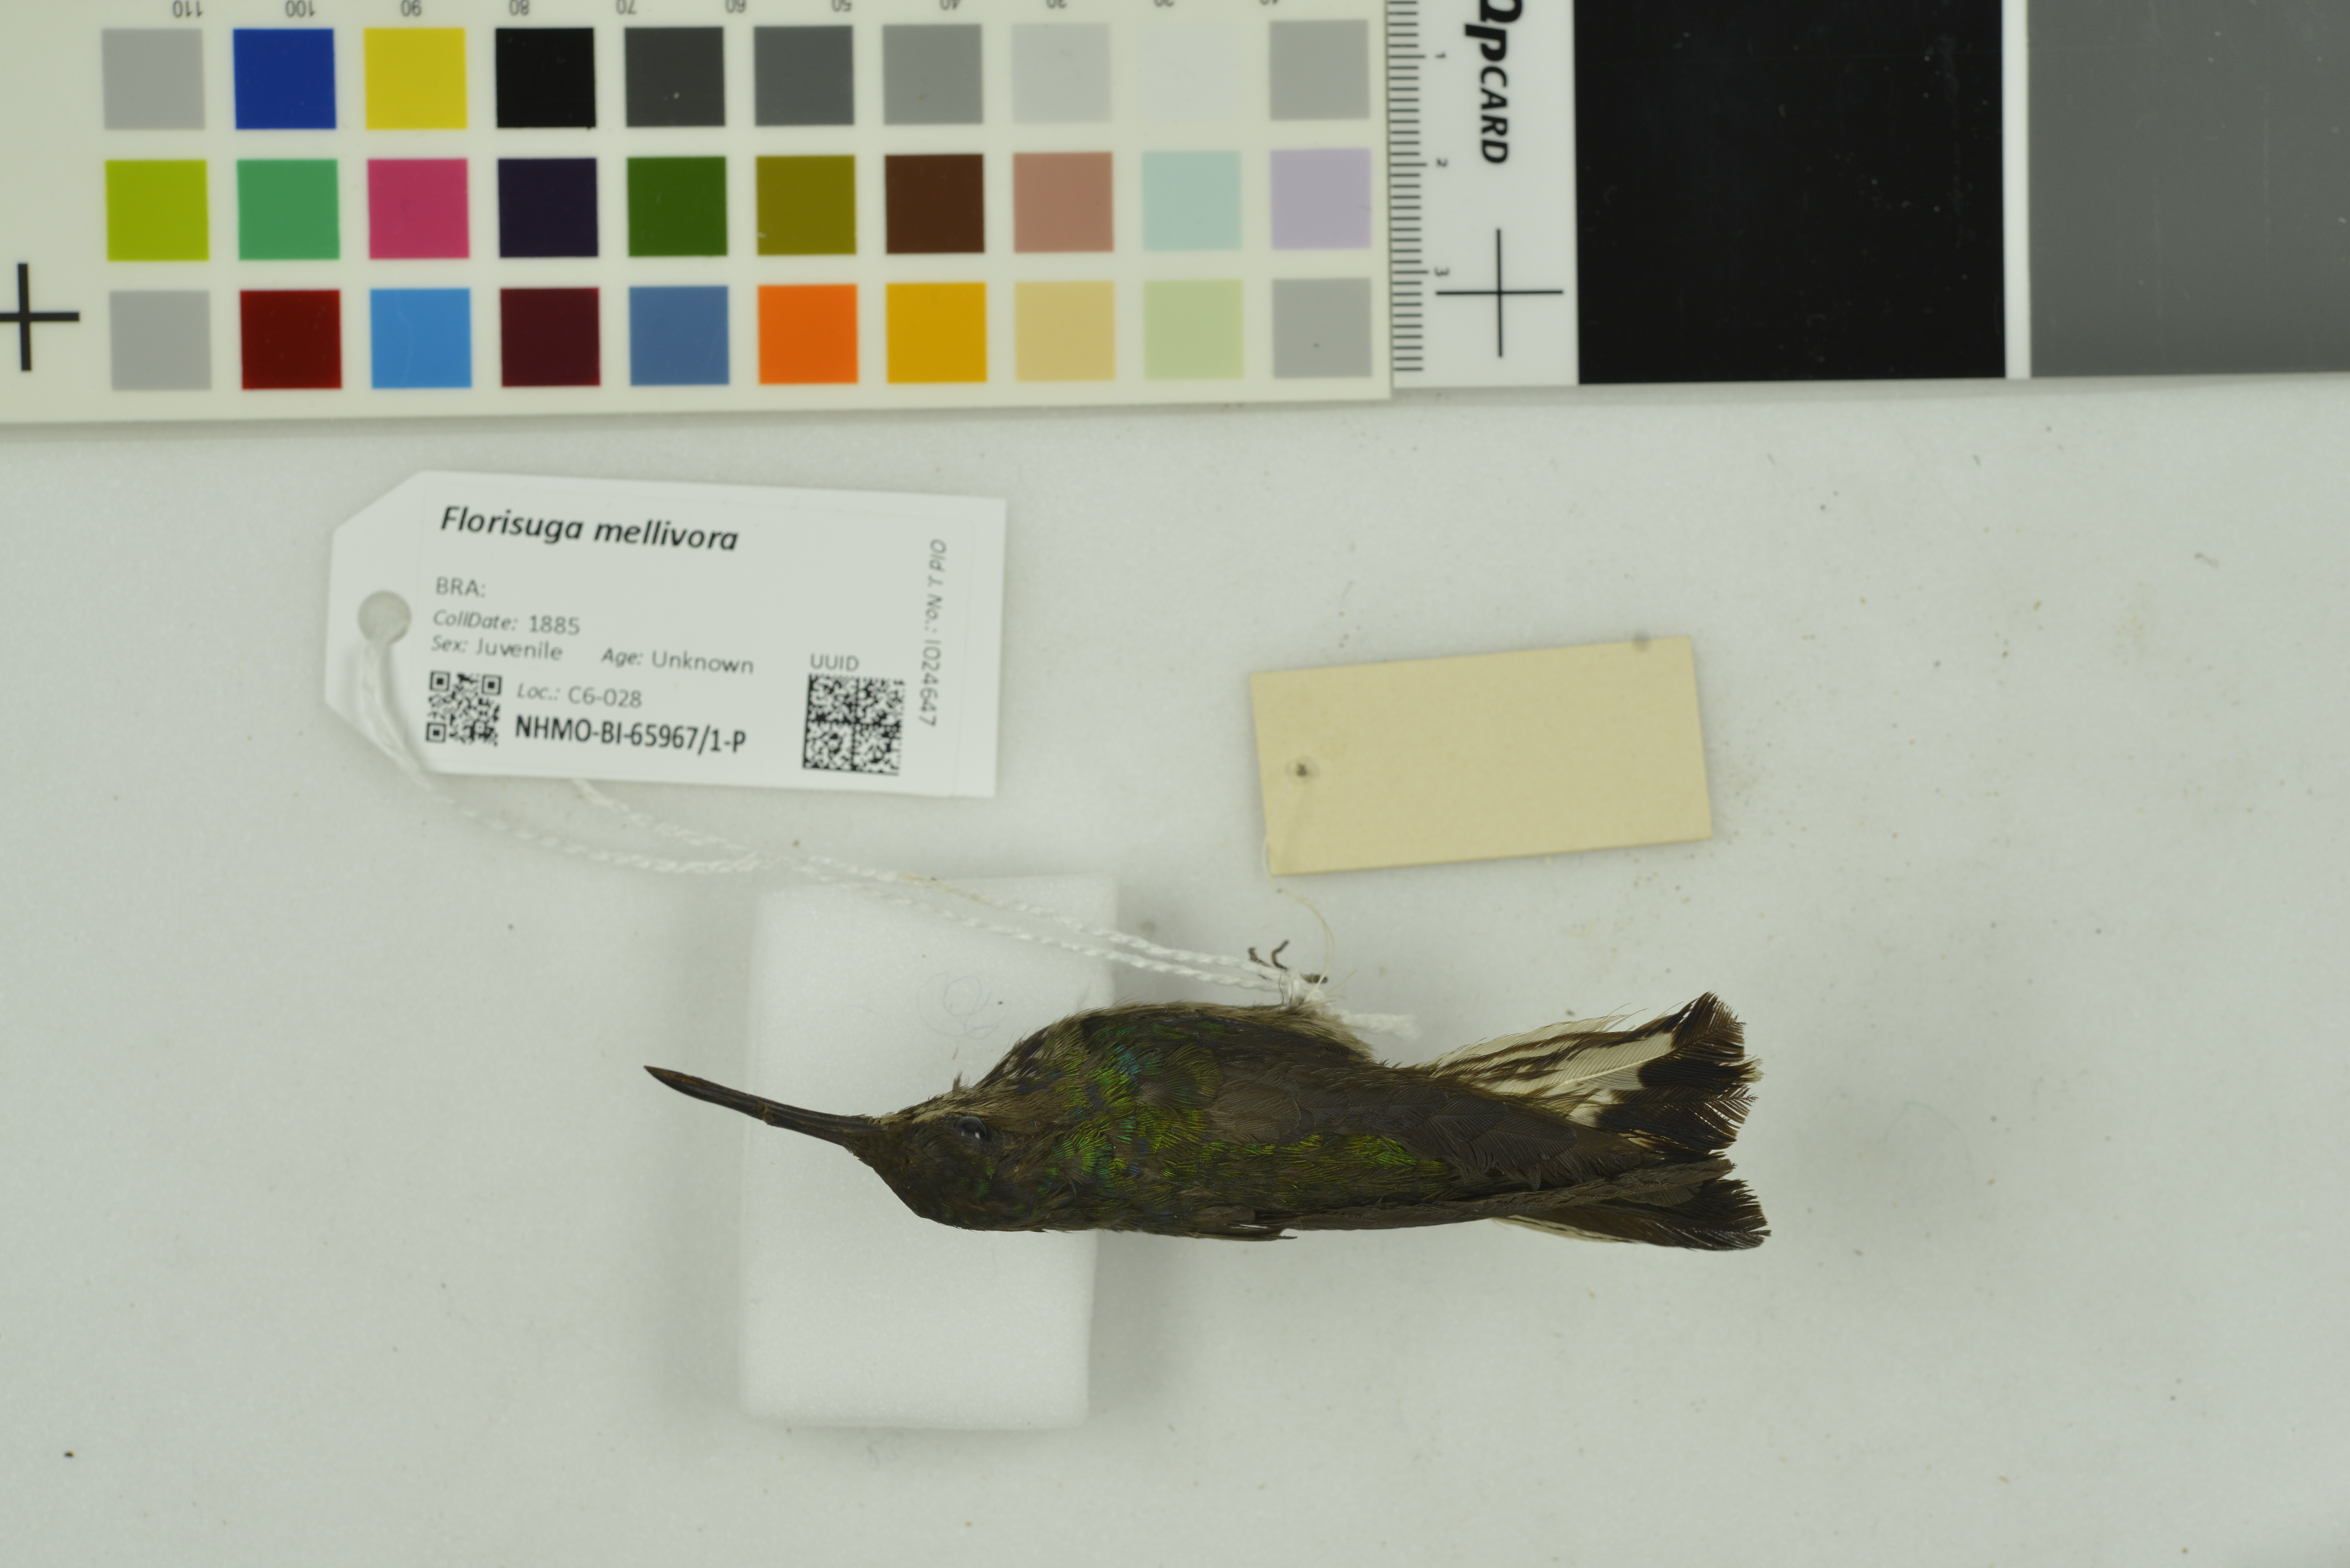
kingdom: Animalia
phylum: Chordata
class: Aves
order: Apodiformes
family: Trochilidae
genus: Florisuga
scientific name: Florisuga mellivora
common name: White-necked jacobin
